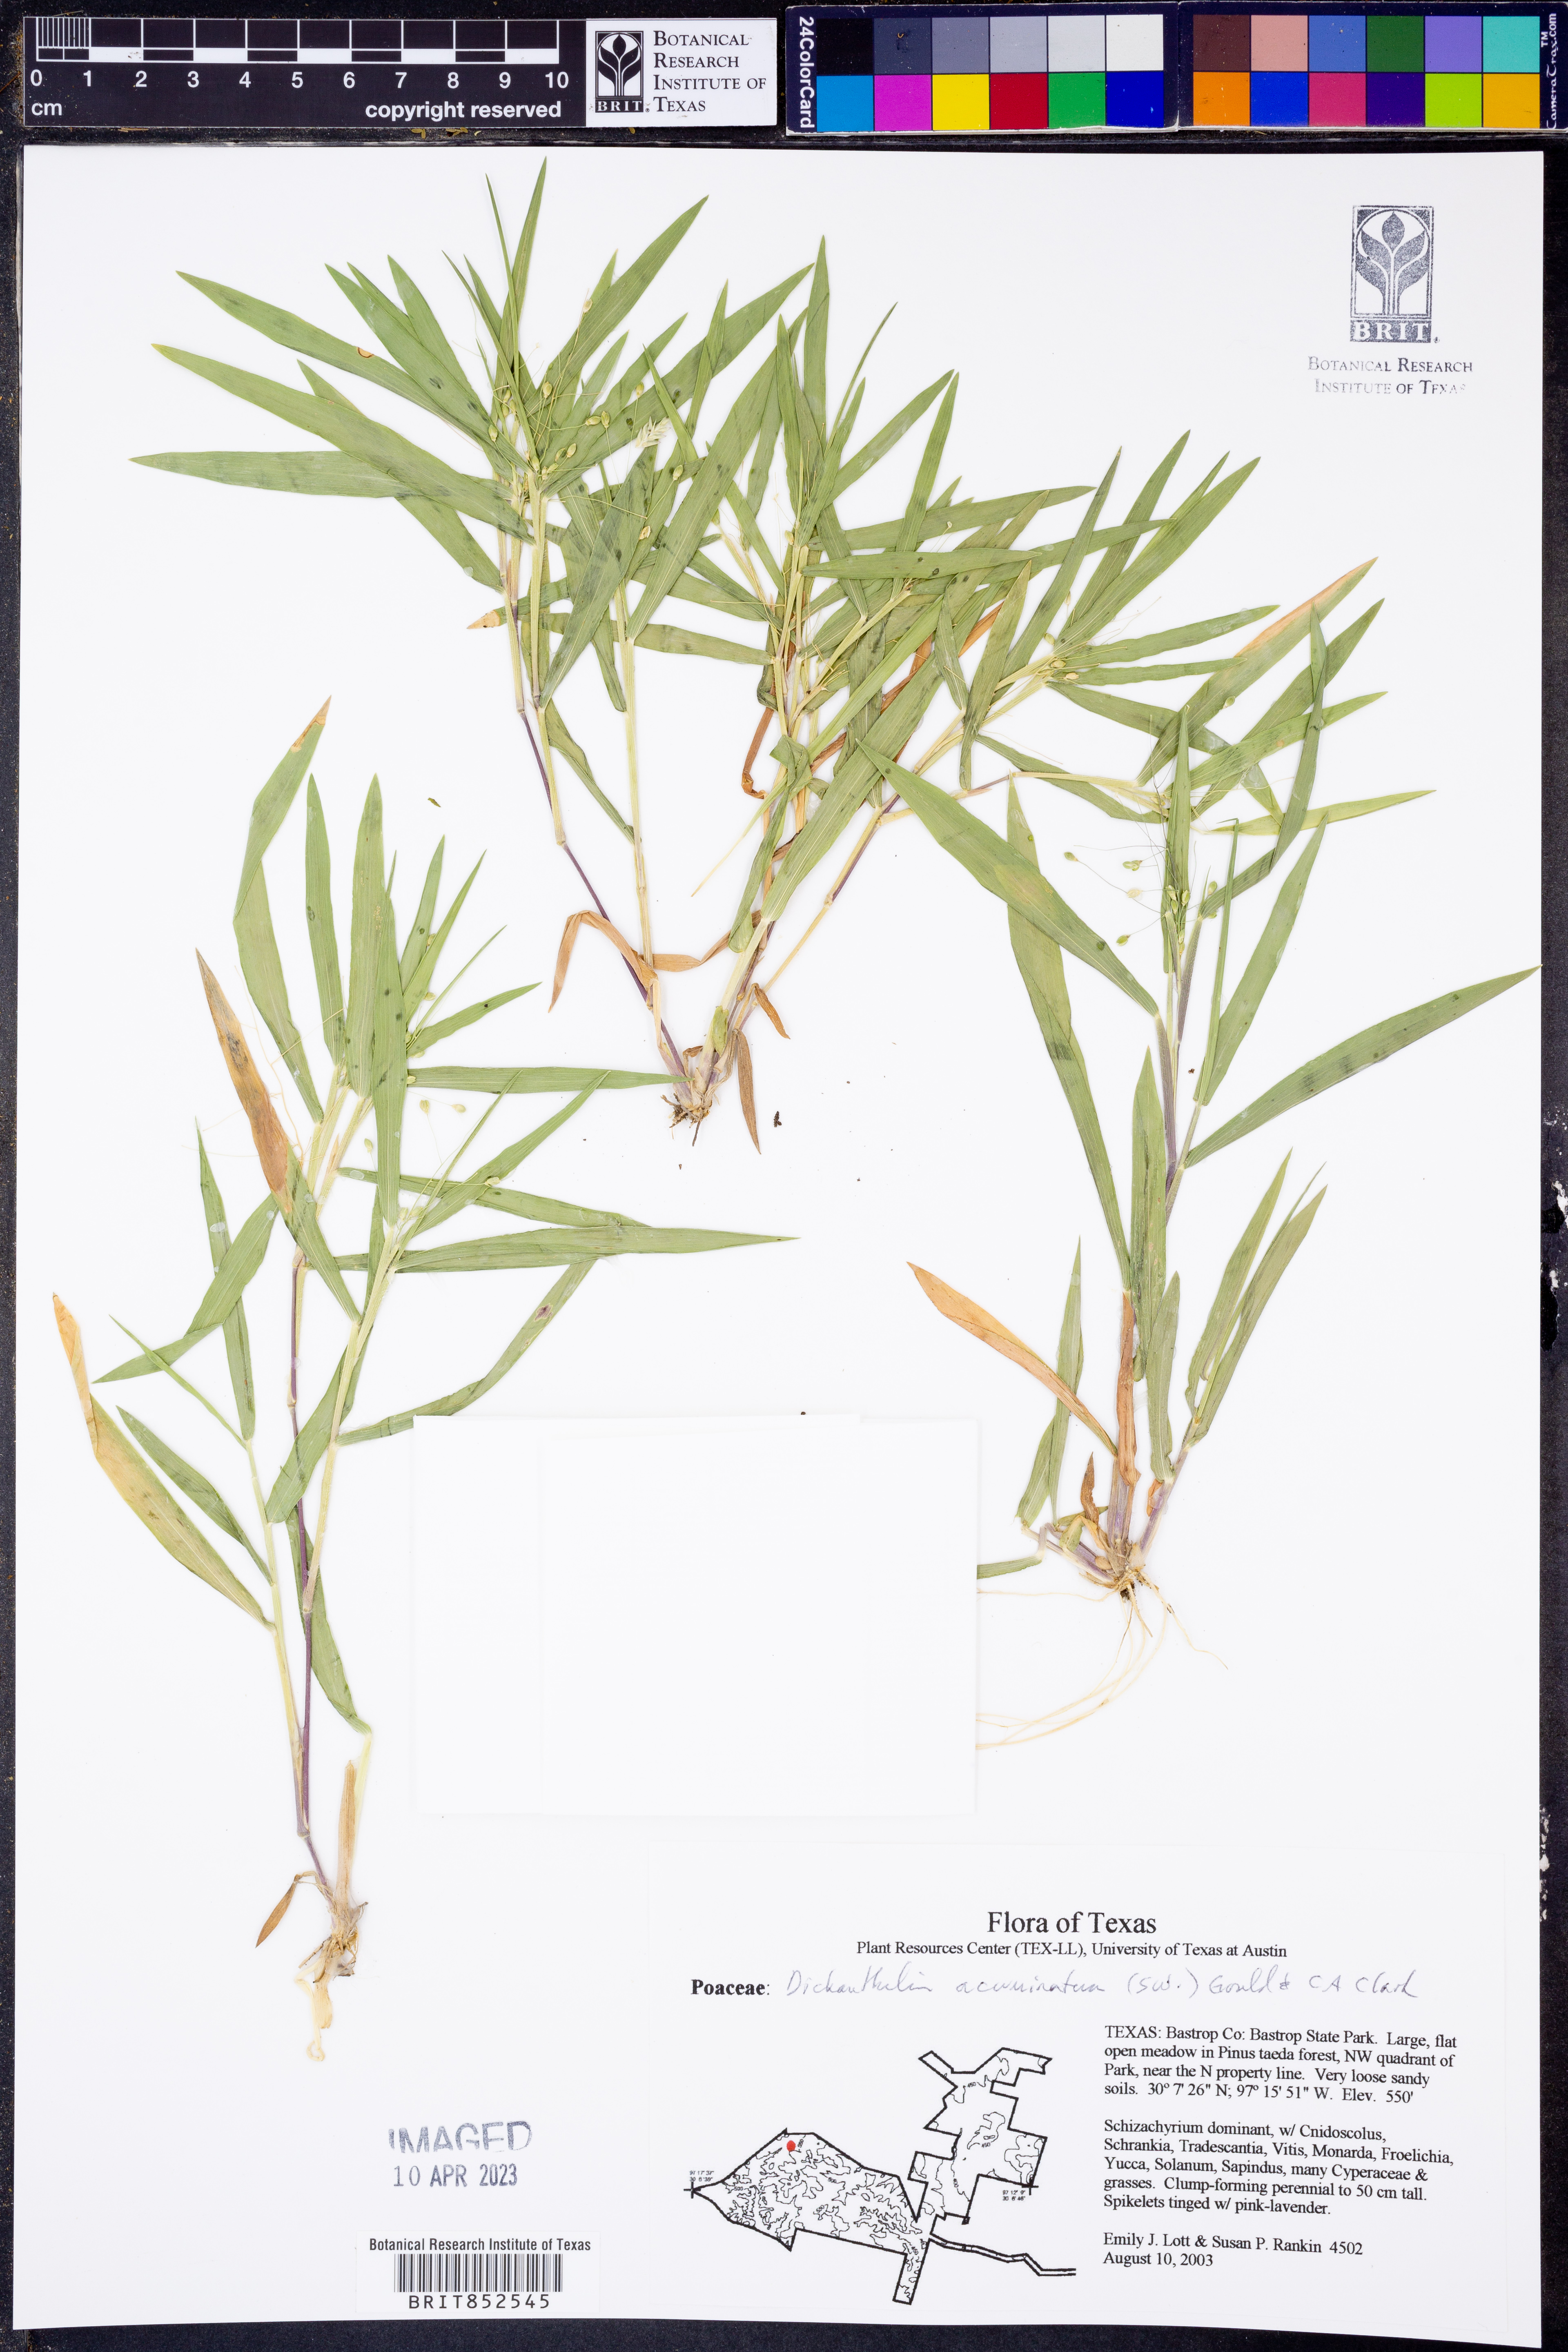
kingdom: Plantae
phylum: Tracheophyta
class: Liliopsida
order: Poales
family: Poaceae
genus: Dichanthelium
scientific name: Dichanthelium acuminatum
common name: Hairy panic grass
